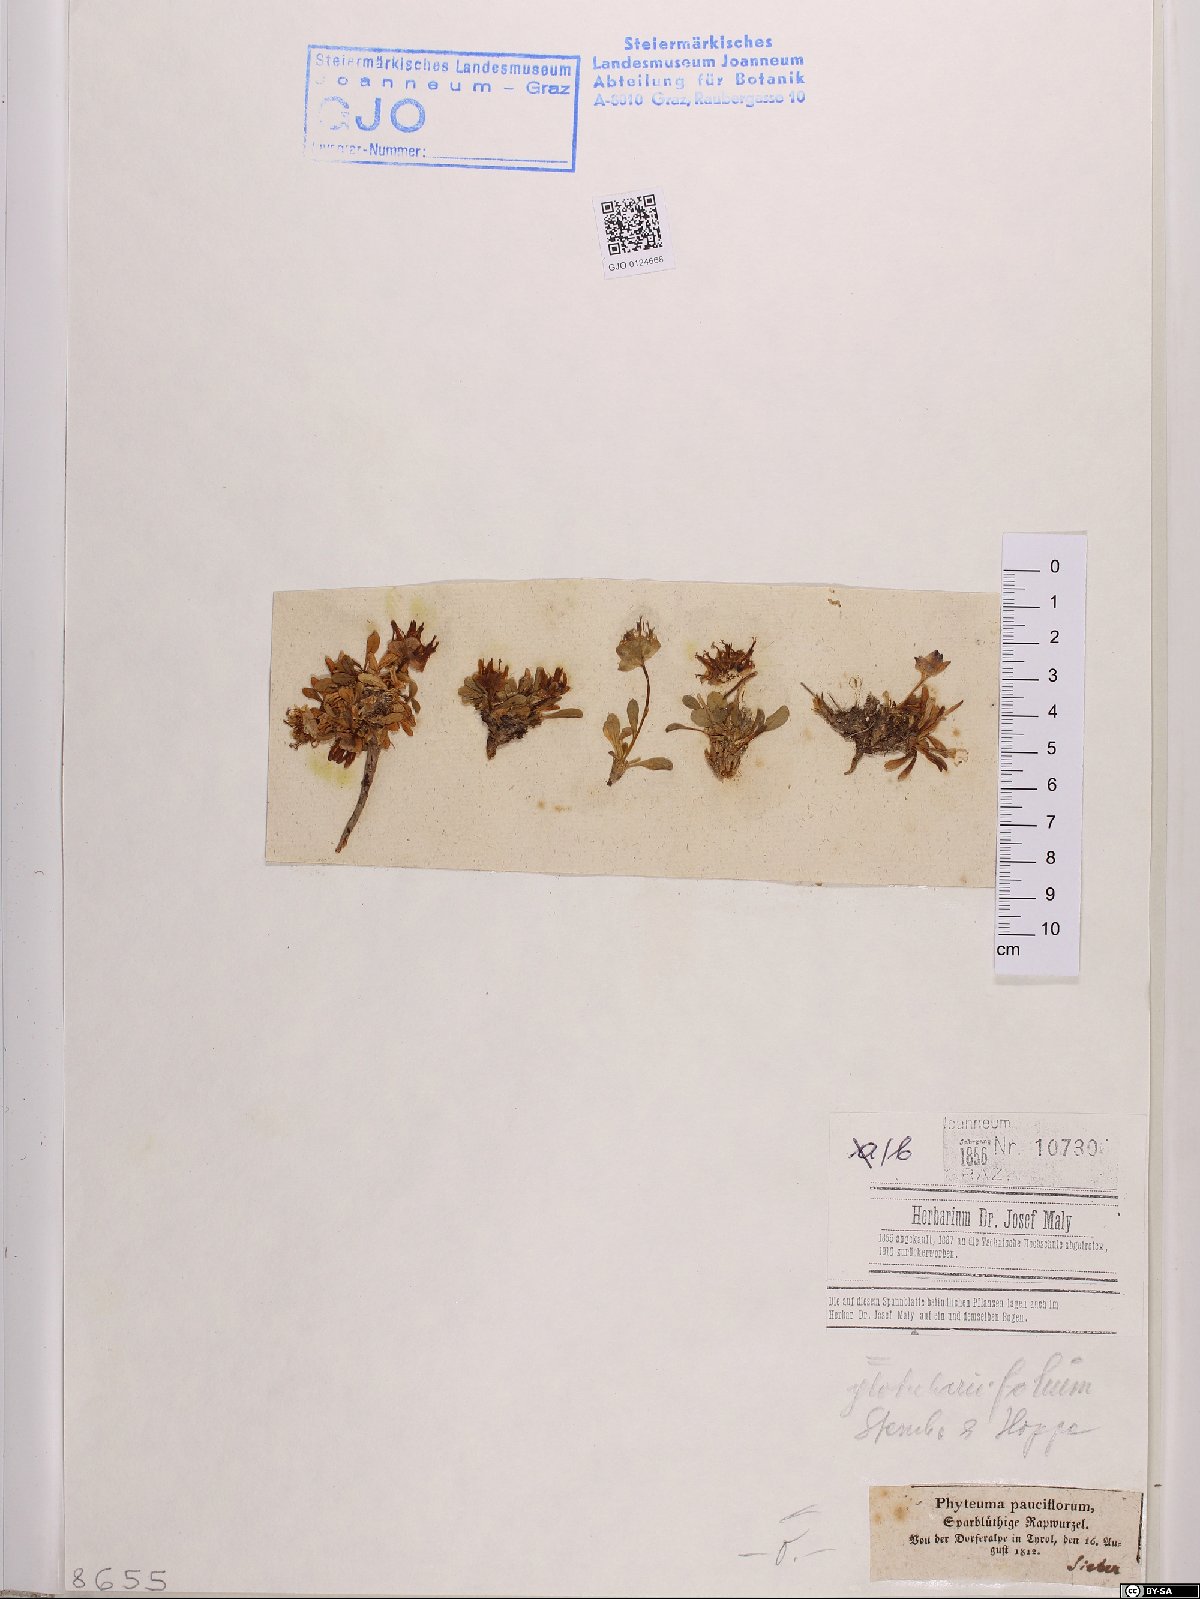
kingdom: Plantae
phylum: Tracheophyta
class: Magnoliopsida
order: Asterales
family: Campanulaceae
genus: Phyteuma
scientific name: Phyteuma globulariifolium
